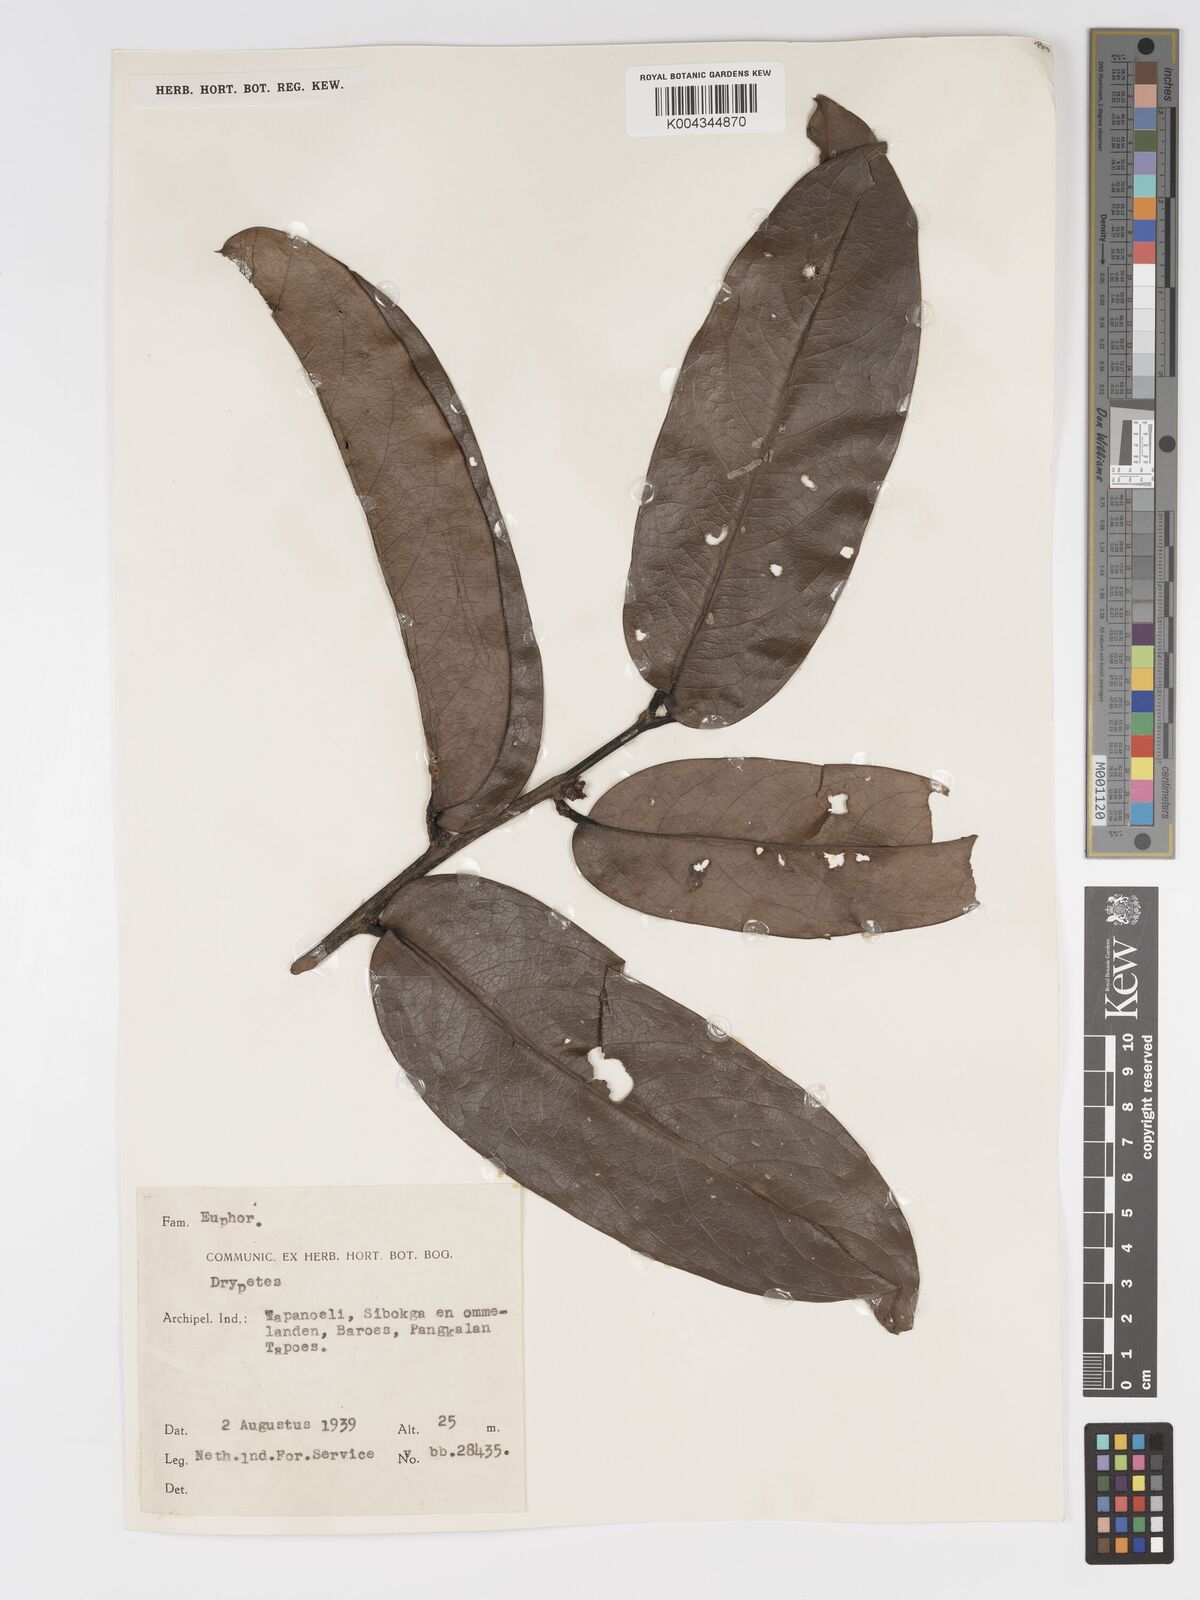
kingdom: Plantae
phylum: Tracheophyta
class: Magnoliopsida
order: Malpighiales
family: Putranjivaceae
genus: Drypetes
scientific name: Drypetes simalurensis
